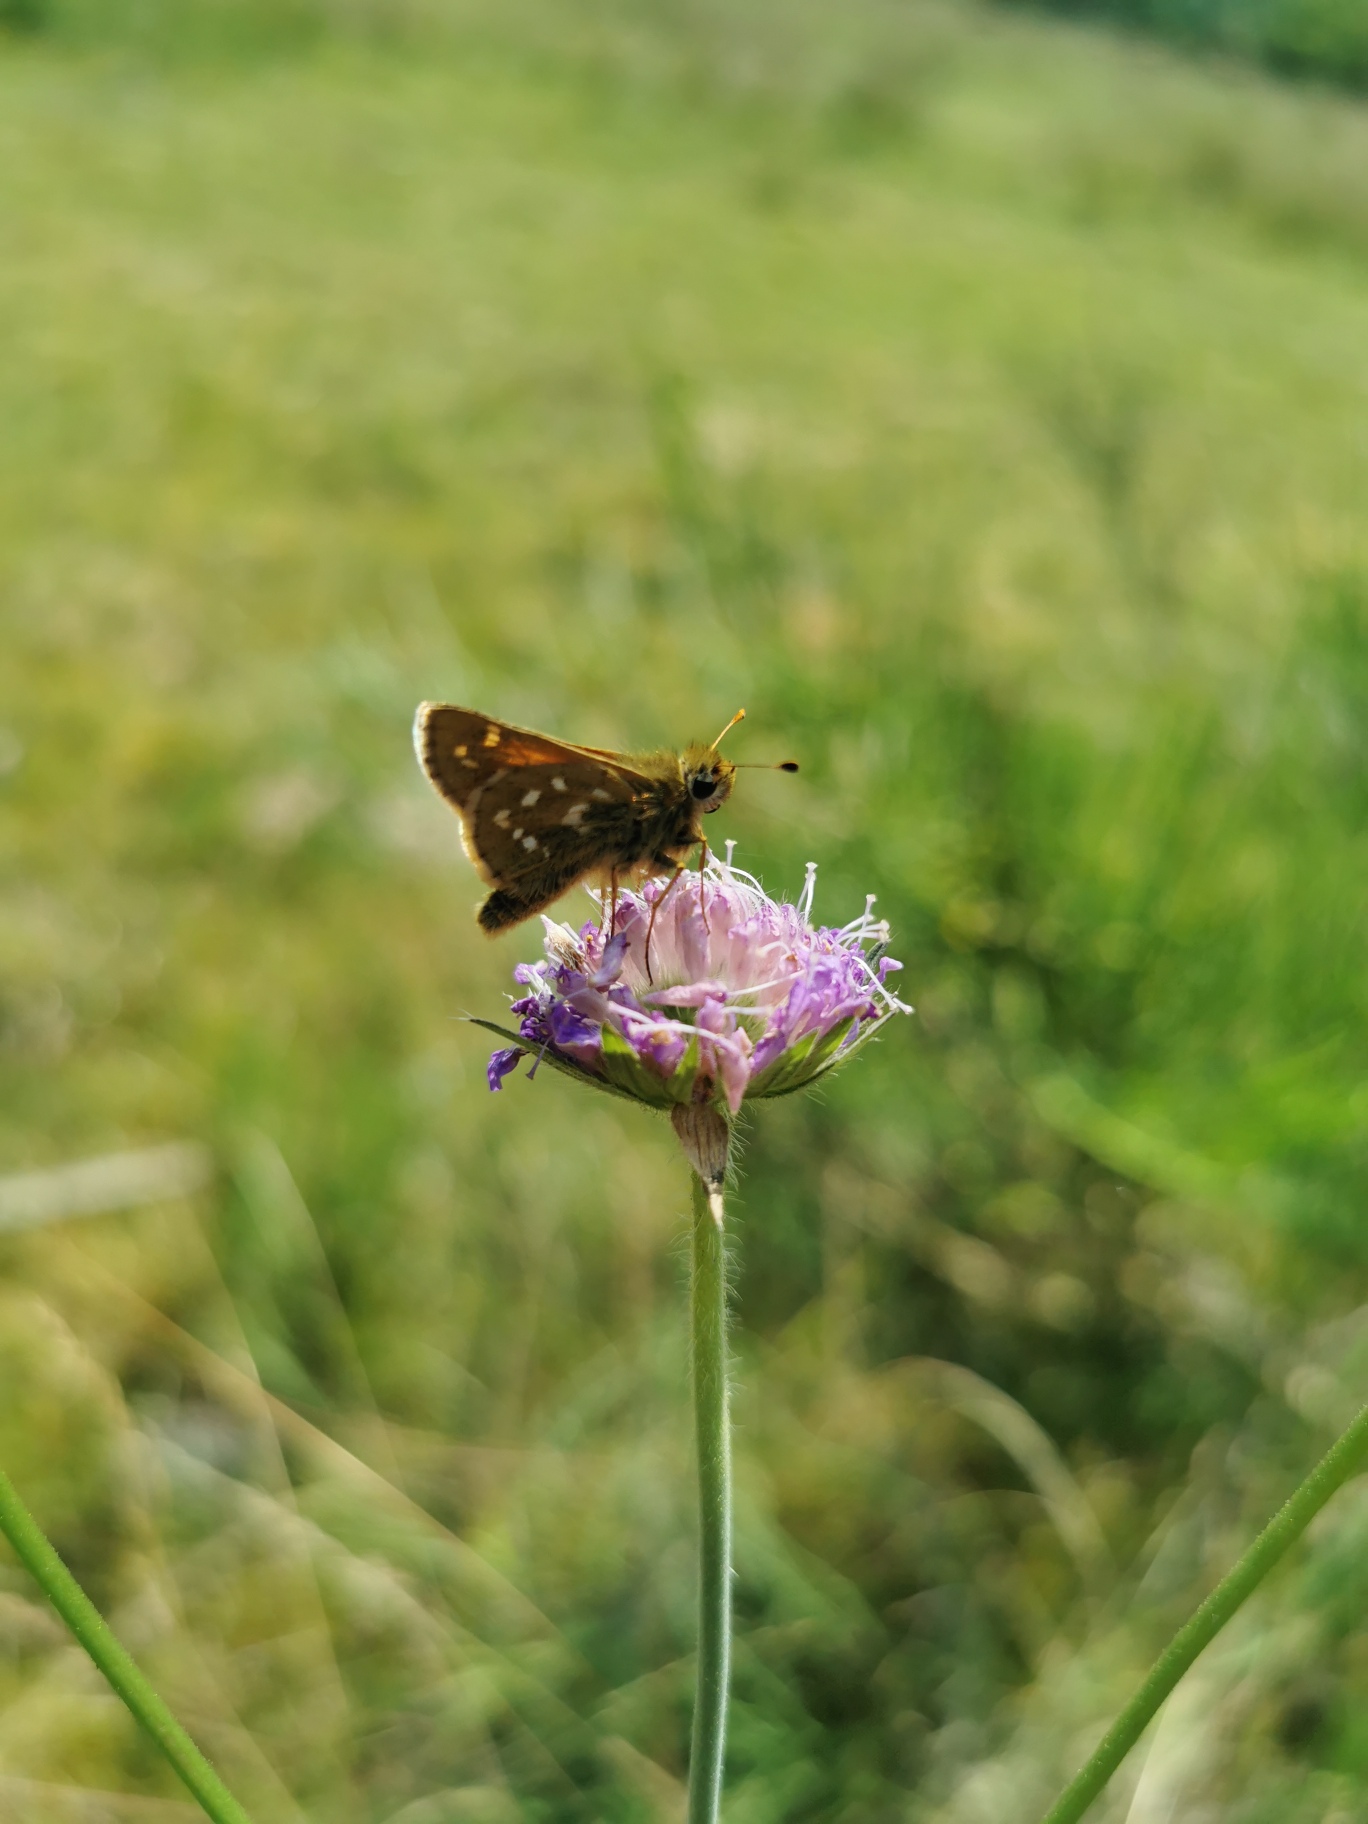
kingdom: Animalia
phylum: Arthropoda
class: Insecta
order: Lepidoptera
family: Hesperiidae
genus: Hesperia
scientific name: Hesperia comma
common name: Kommabredpande
